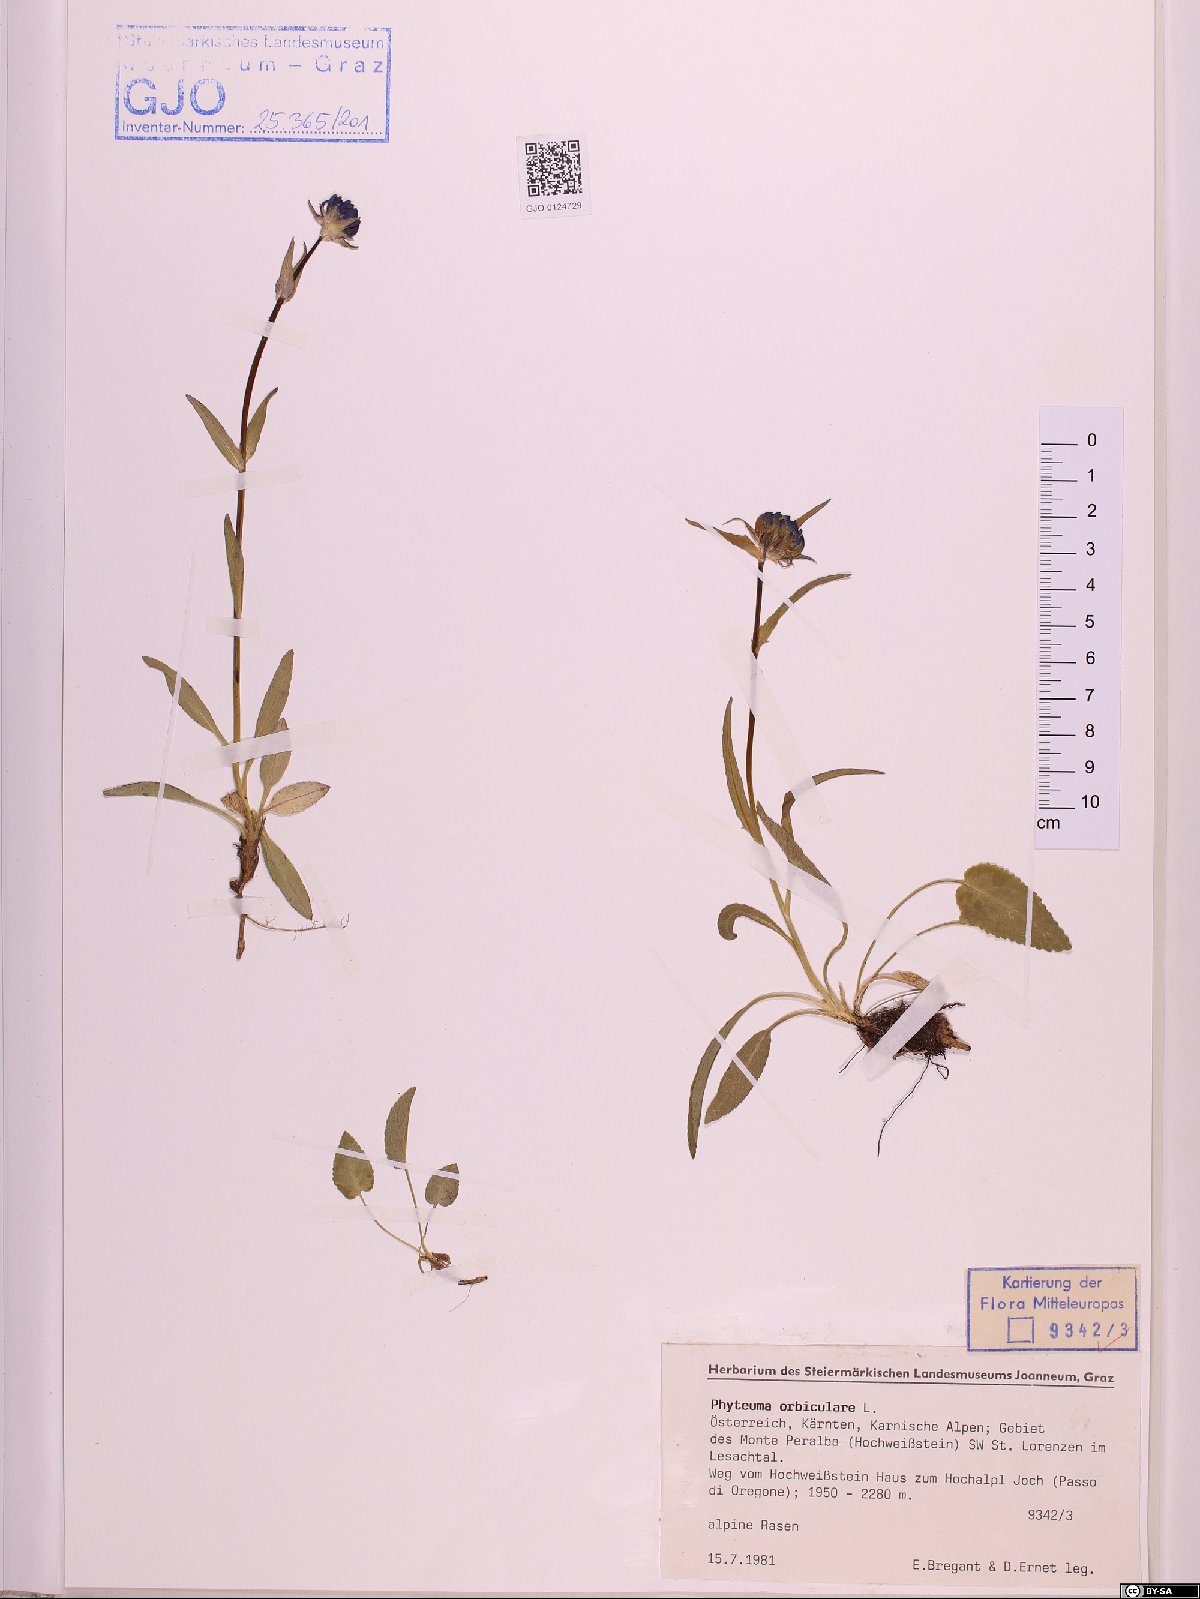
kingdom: Plantae
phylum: Tracheophyta
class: Magnoliopsida
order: Asterales
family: Campanulaceae
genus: Phyteuma
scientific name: Phyteuma orbiculare
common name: Round-headed rampion
